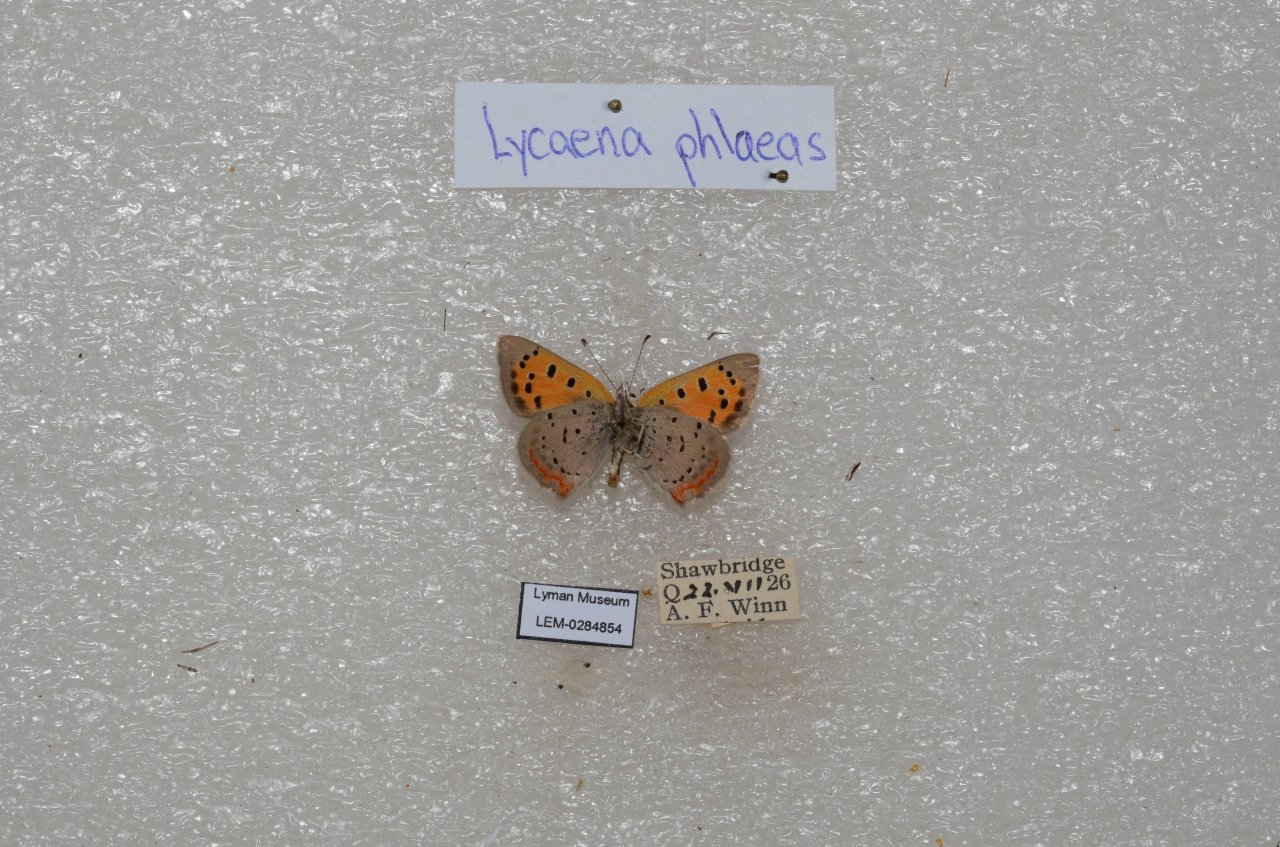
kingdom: Animalia
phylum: Arthropoda
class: Insecta
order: Lepidoptera
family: Lycaenidae
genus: Lycaena
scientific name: Lycaena phlaeas
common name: American Copper
